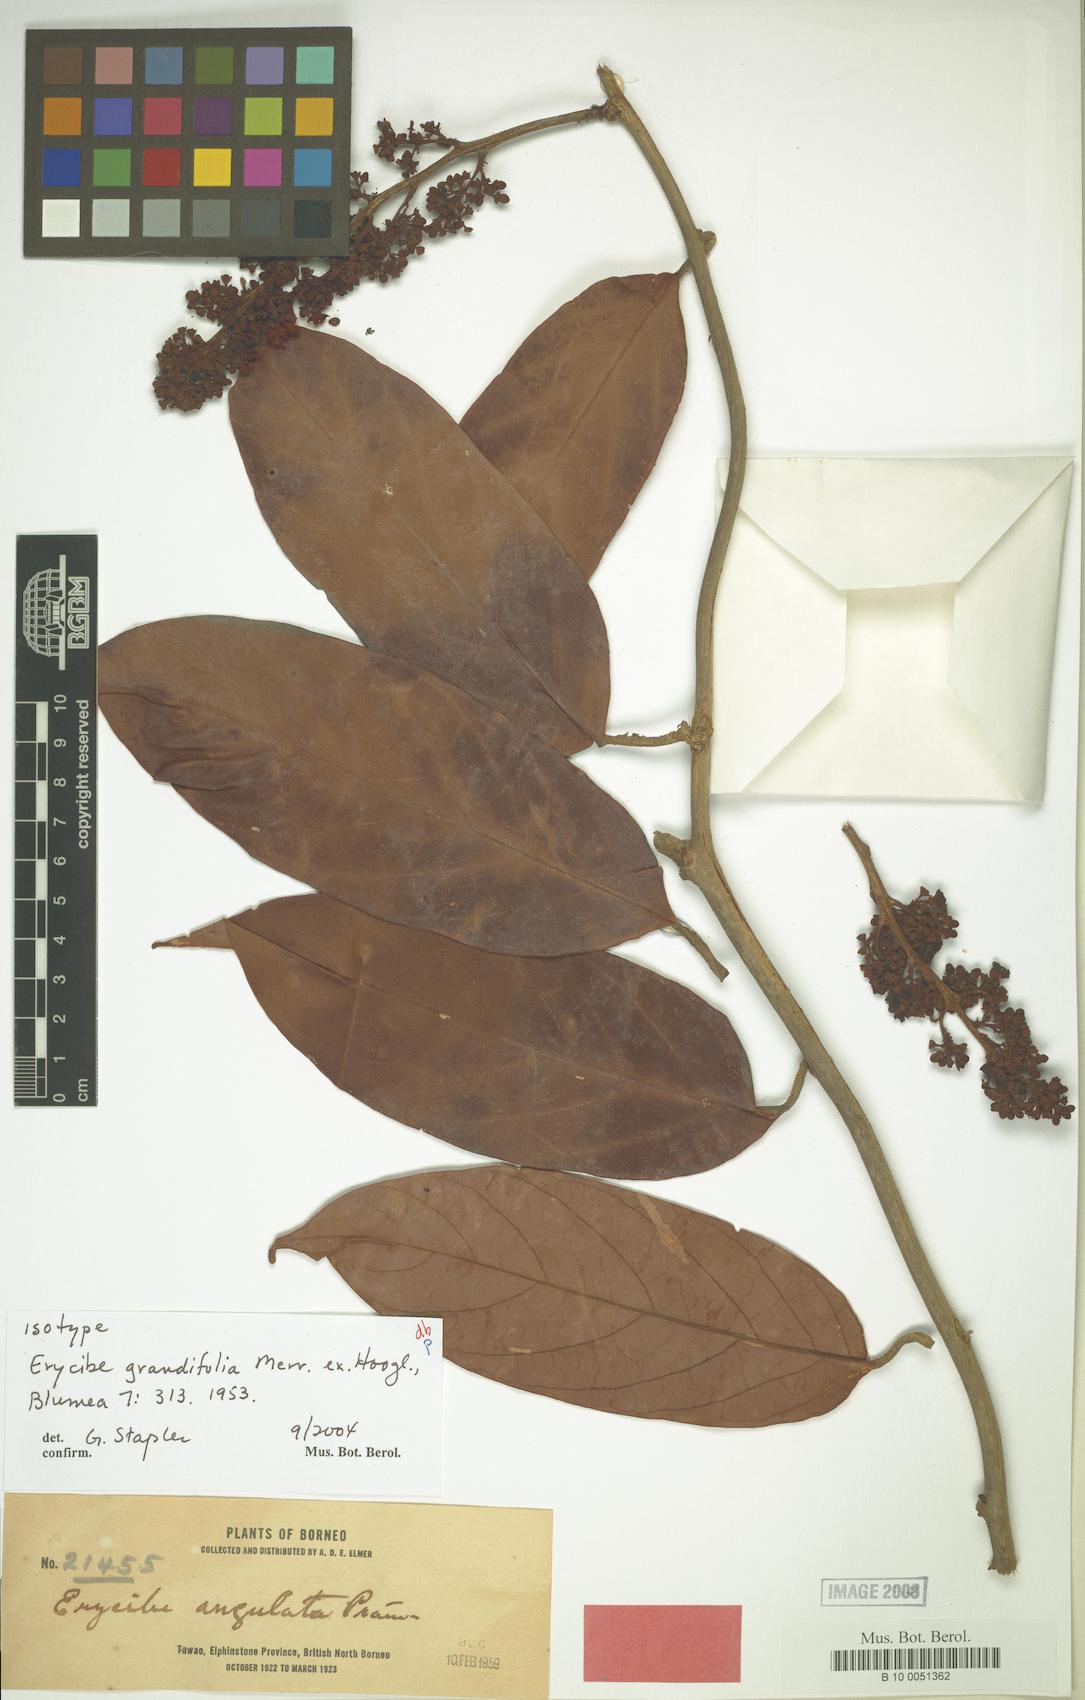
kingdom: Plantae
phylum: Tracheophyta
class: Magnoliopsida
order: Solanales
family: Convolvulaceae
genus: Erycibe
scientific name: Erycibe grandifolia
